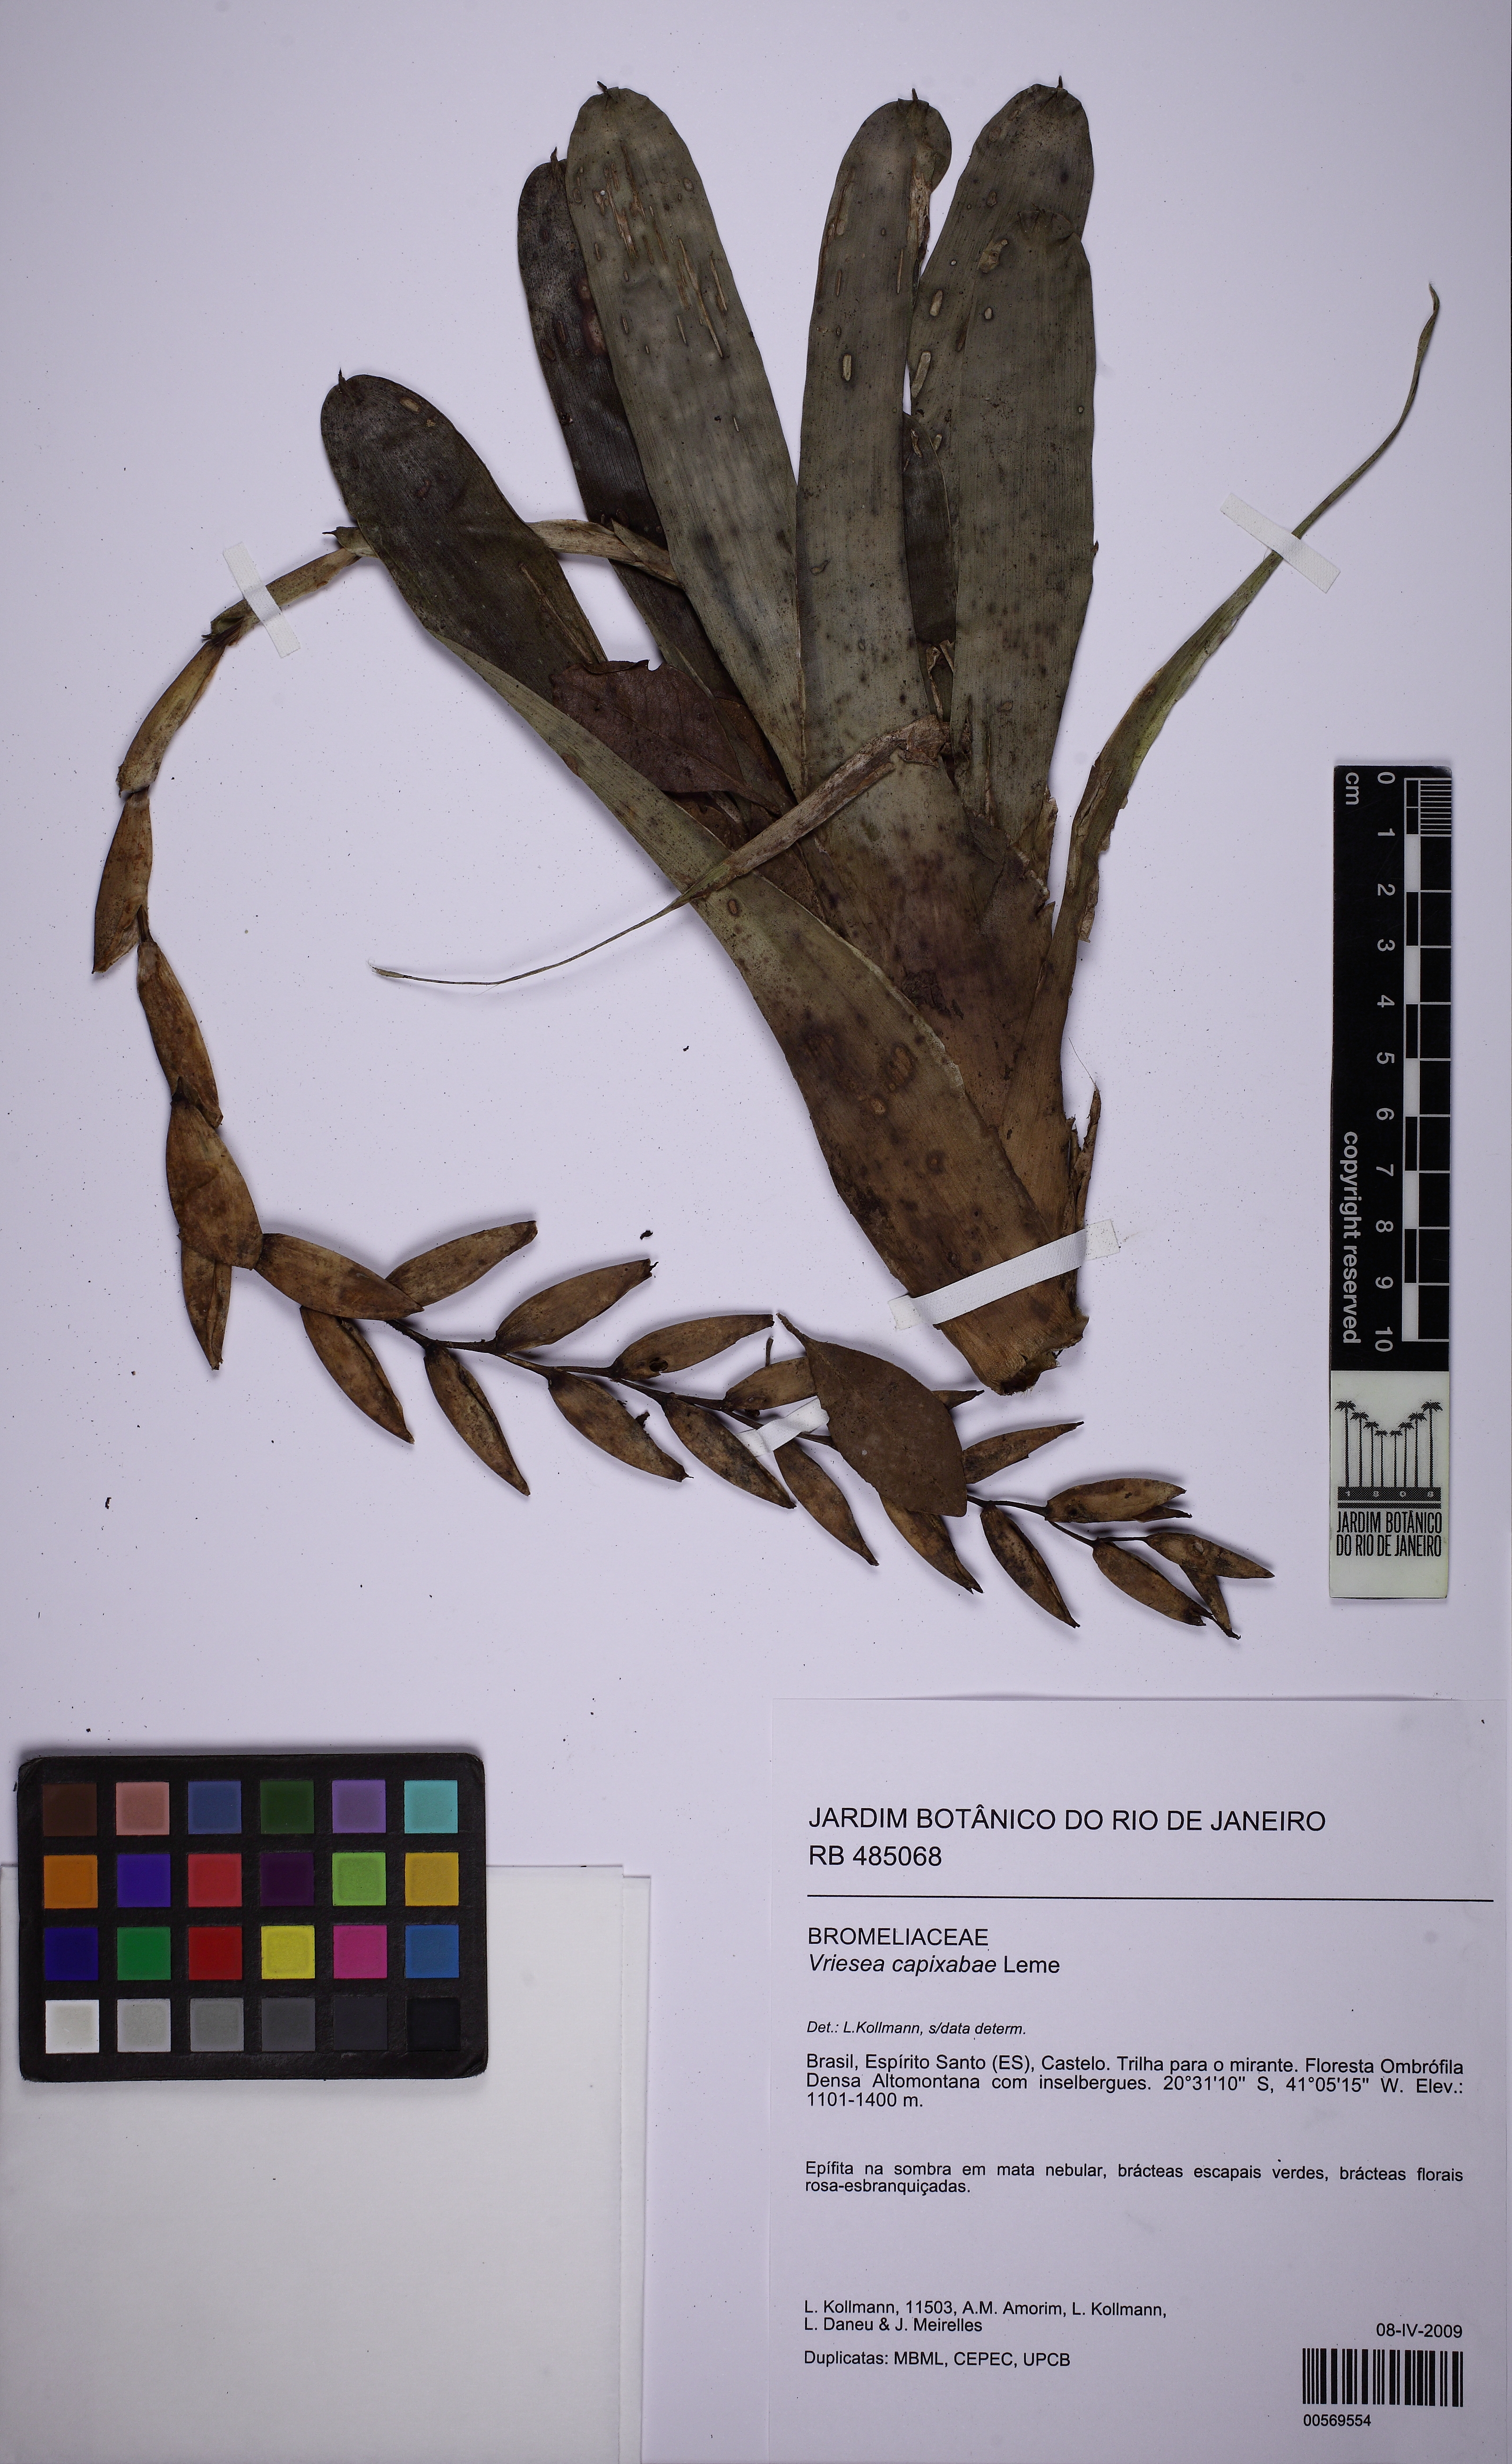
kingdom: Plantae
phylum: Tracheophyta
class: Liliopsida
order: Poales
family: Bromeliaceae
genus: Vriesea
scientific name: Vriesea capixabae
